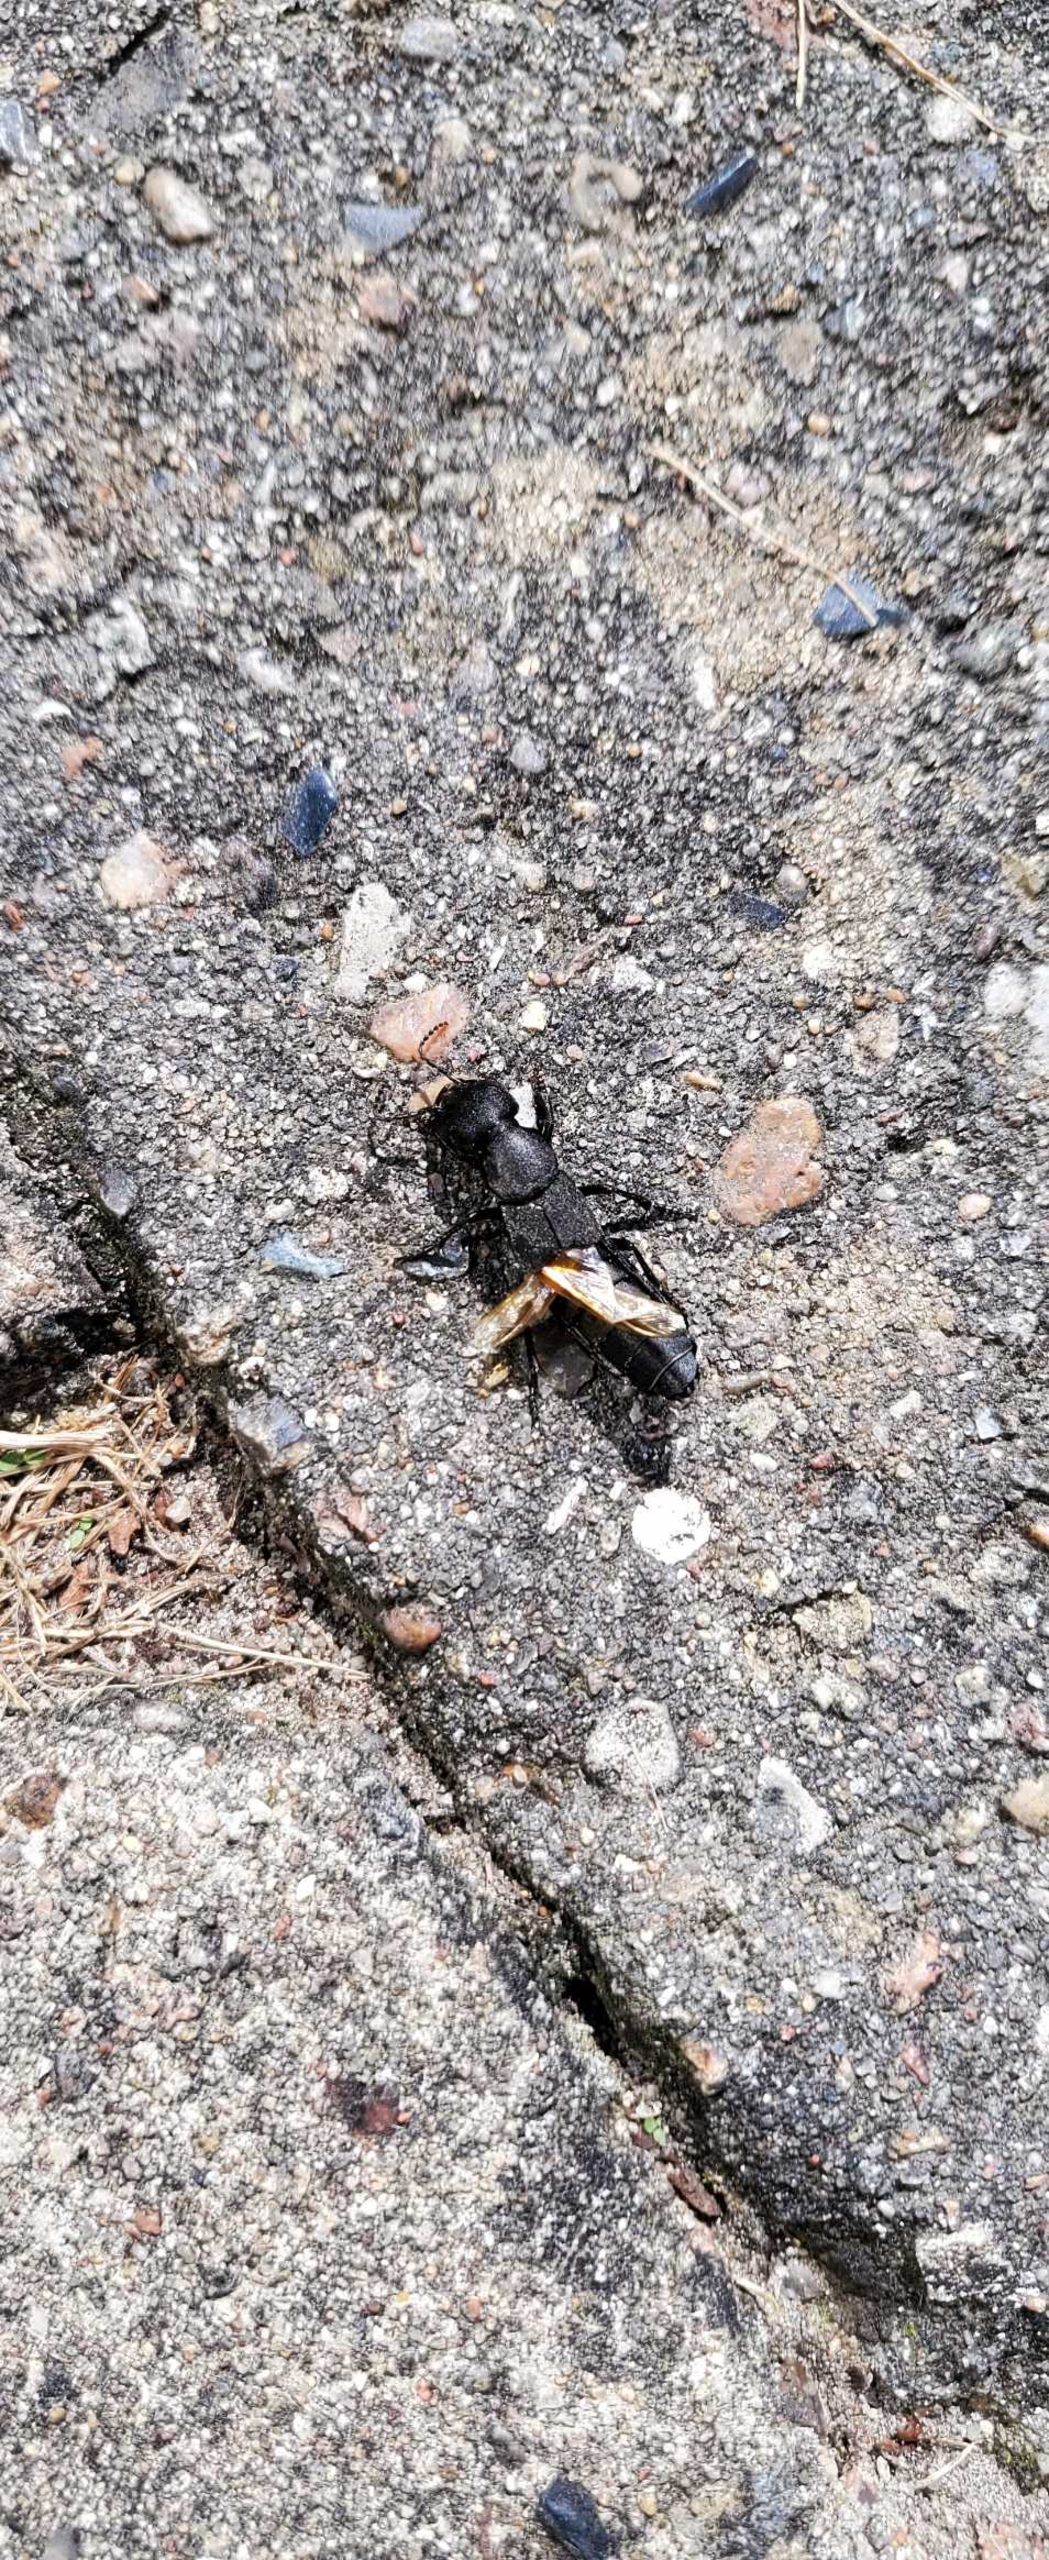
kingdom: Animalia
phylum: Arthropoda
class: Insecta
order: Coleoptera
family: Staphylinidae
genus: Ocypus
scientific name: Ocypus olens
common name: Stor rovbille
